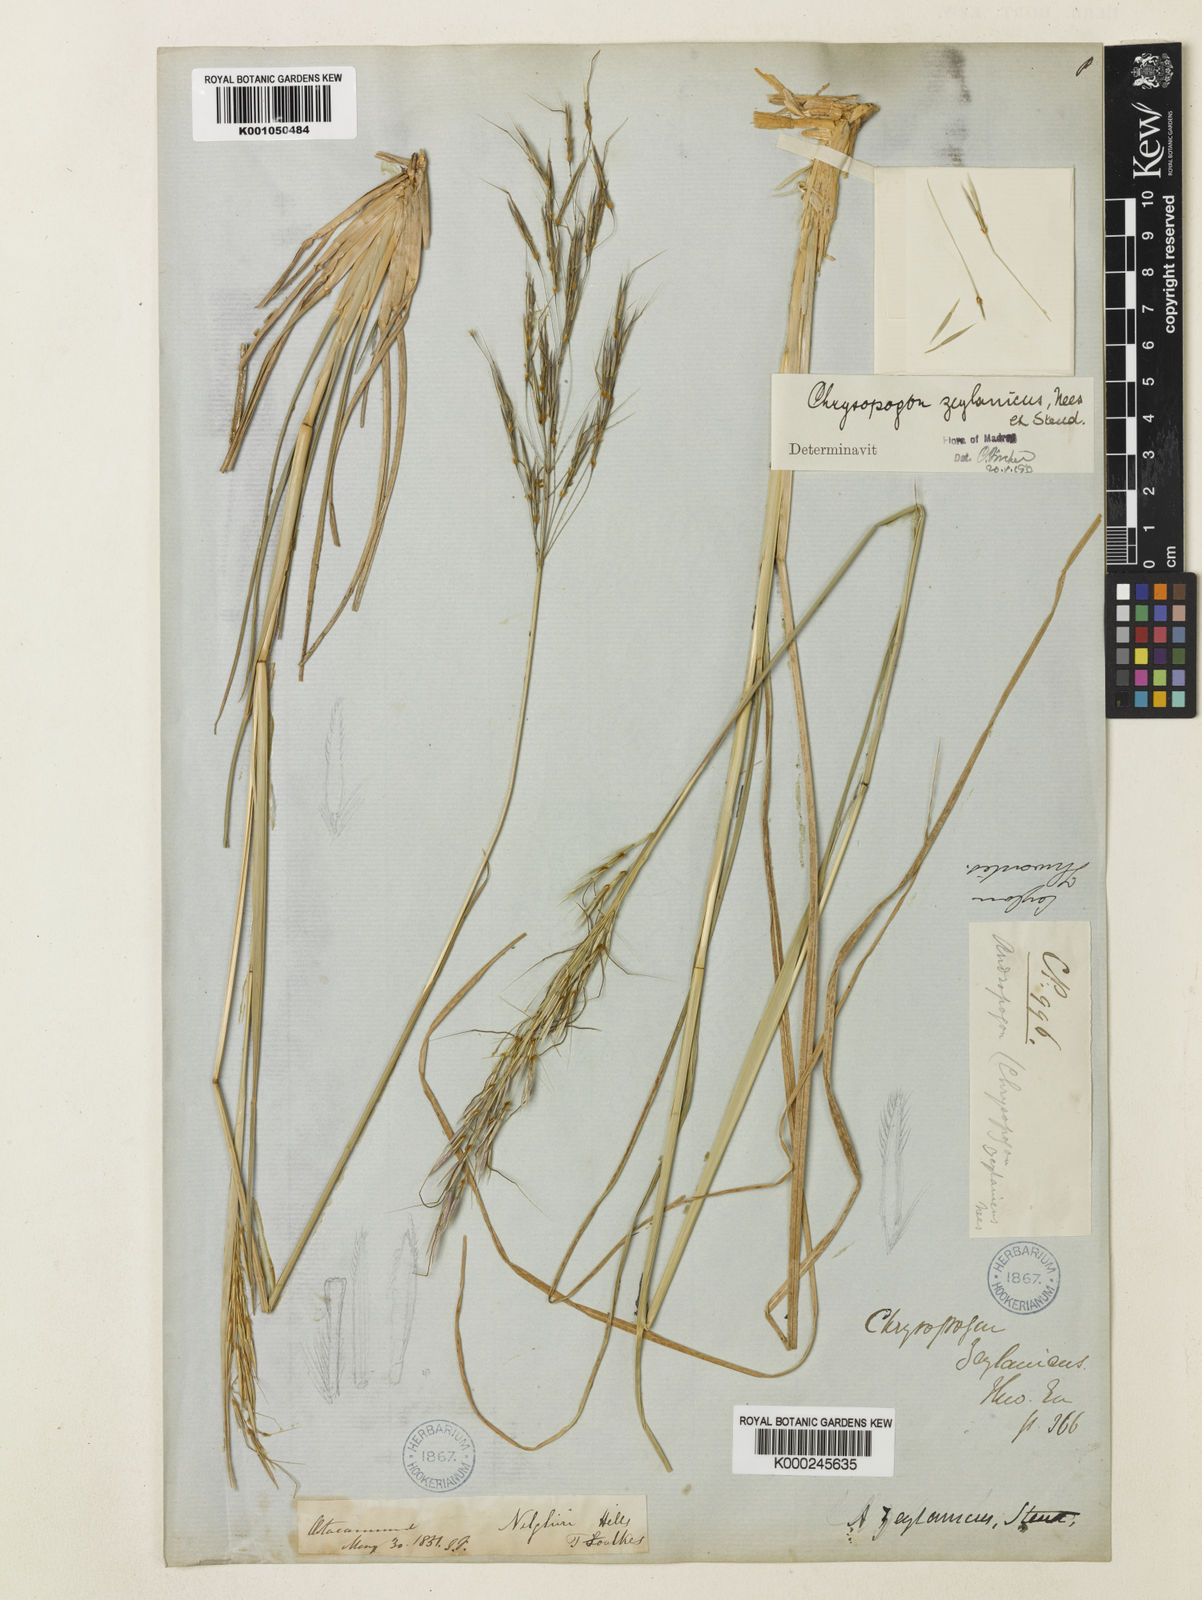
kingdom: Plantae
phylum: Tracheophyta
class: Liliopsida
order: Poales
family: Poaceae
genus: Chrysopogon
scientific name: Chrysopogon nodulibarbis
